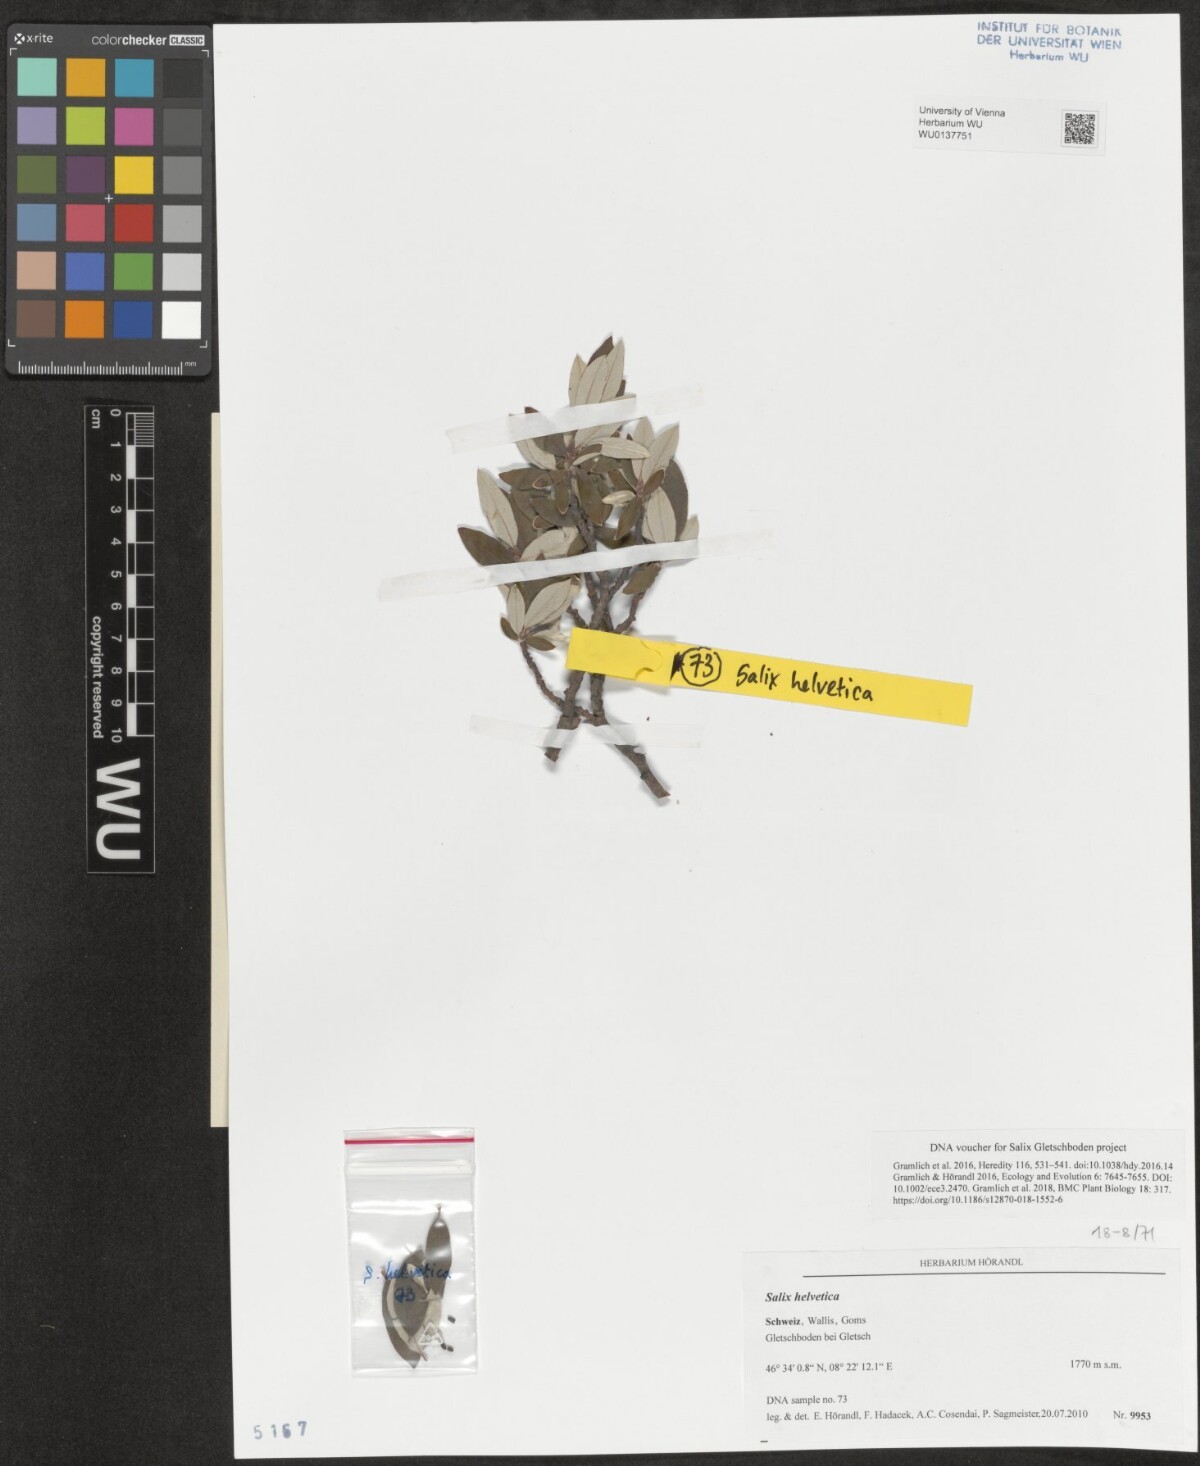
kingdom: Plantae
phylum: Tracheophyta
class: Magnoliopsida
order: Malpighiales
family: Salicaceae
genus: Salix
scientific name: Salix helvetica
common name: Swiss willow
